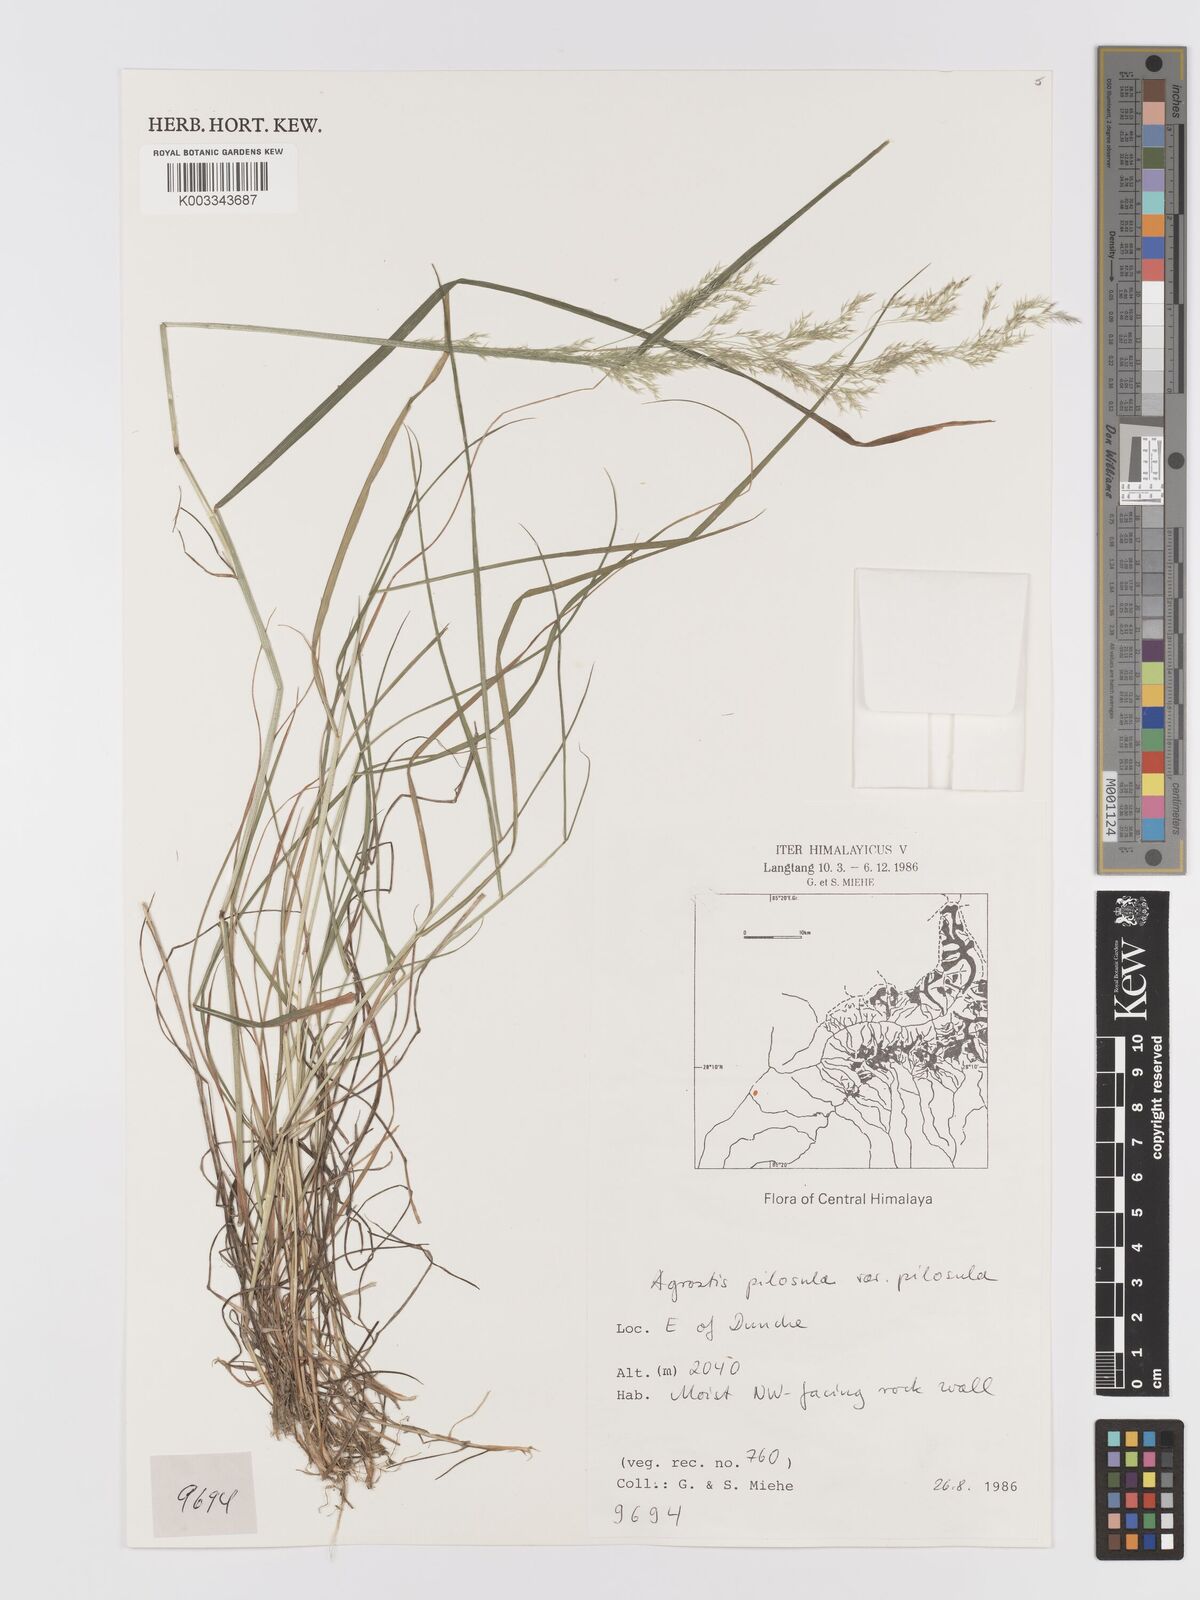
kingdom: Plantae
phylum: Tracheophyta
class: Liliopsida
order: Poales
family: Poaceae
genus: Agrostis
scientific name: Agrostis pilosula
